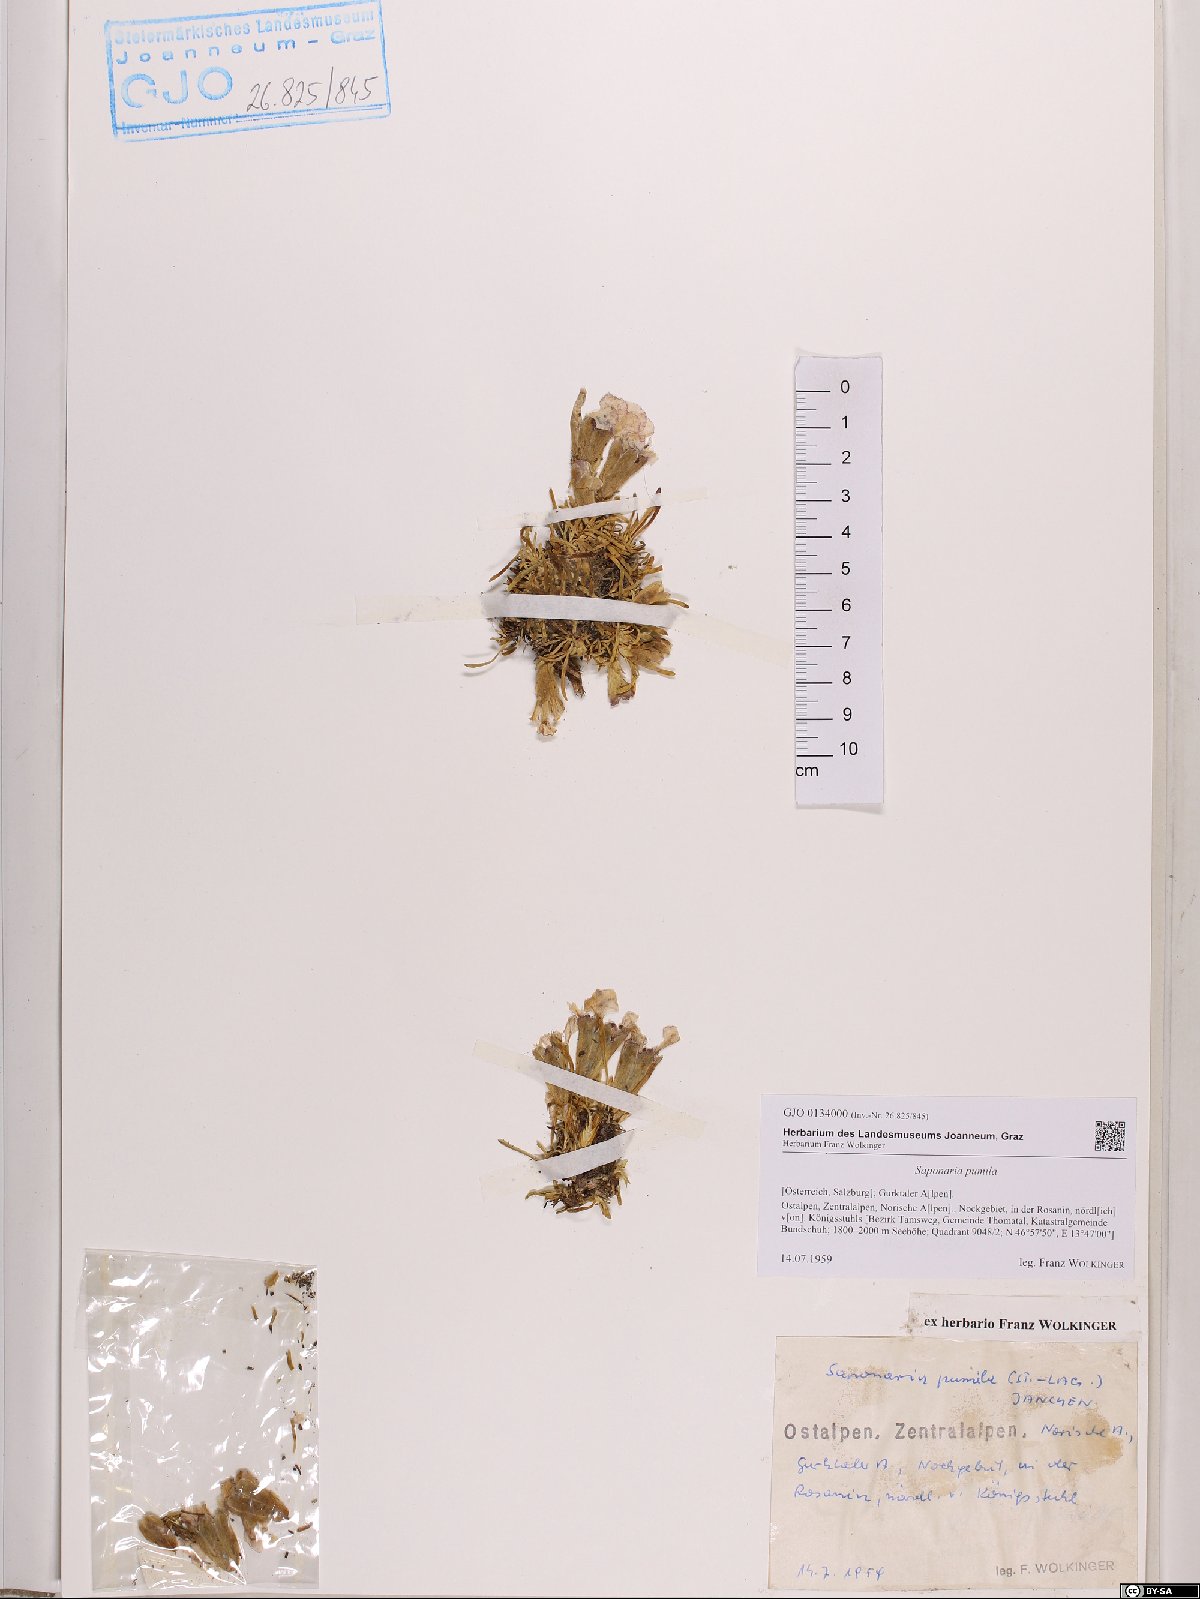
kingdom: Plantae
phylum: Tracheophyta
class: Magnoliopsida
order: Caryophyllales
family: Caryophyllaceae
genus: Saponaria
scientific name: Saponaria pumila
